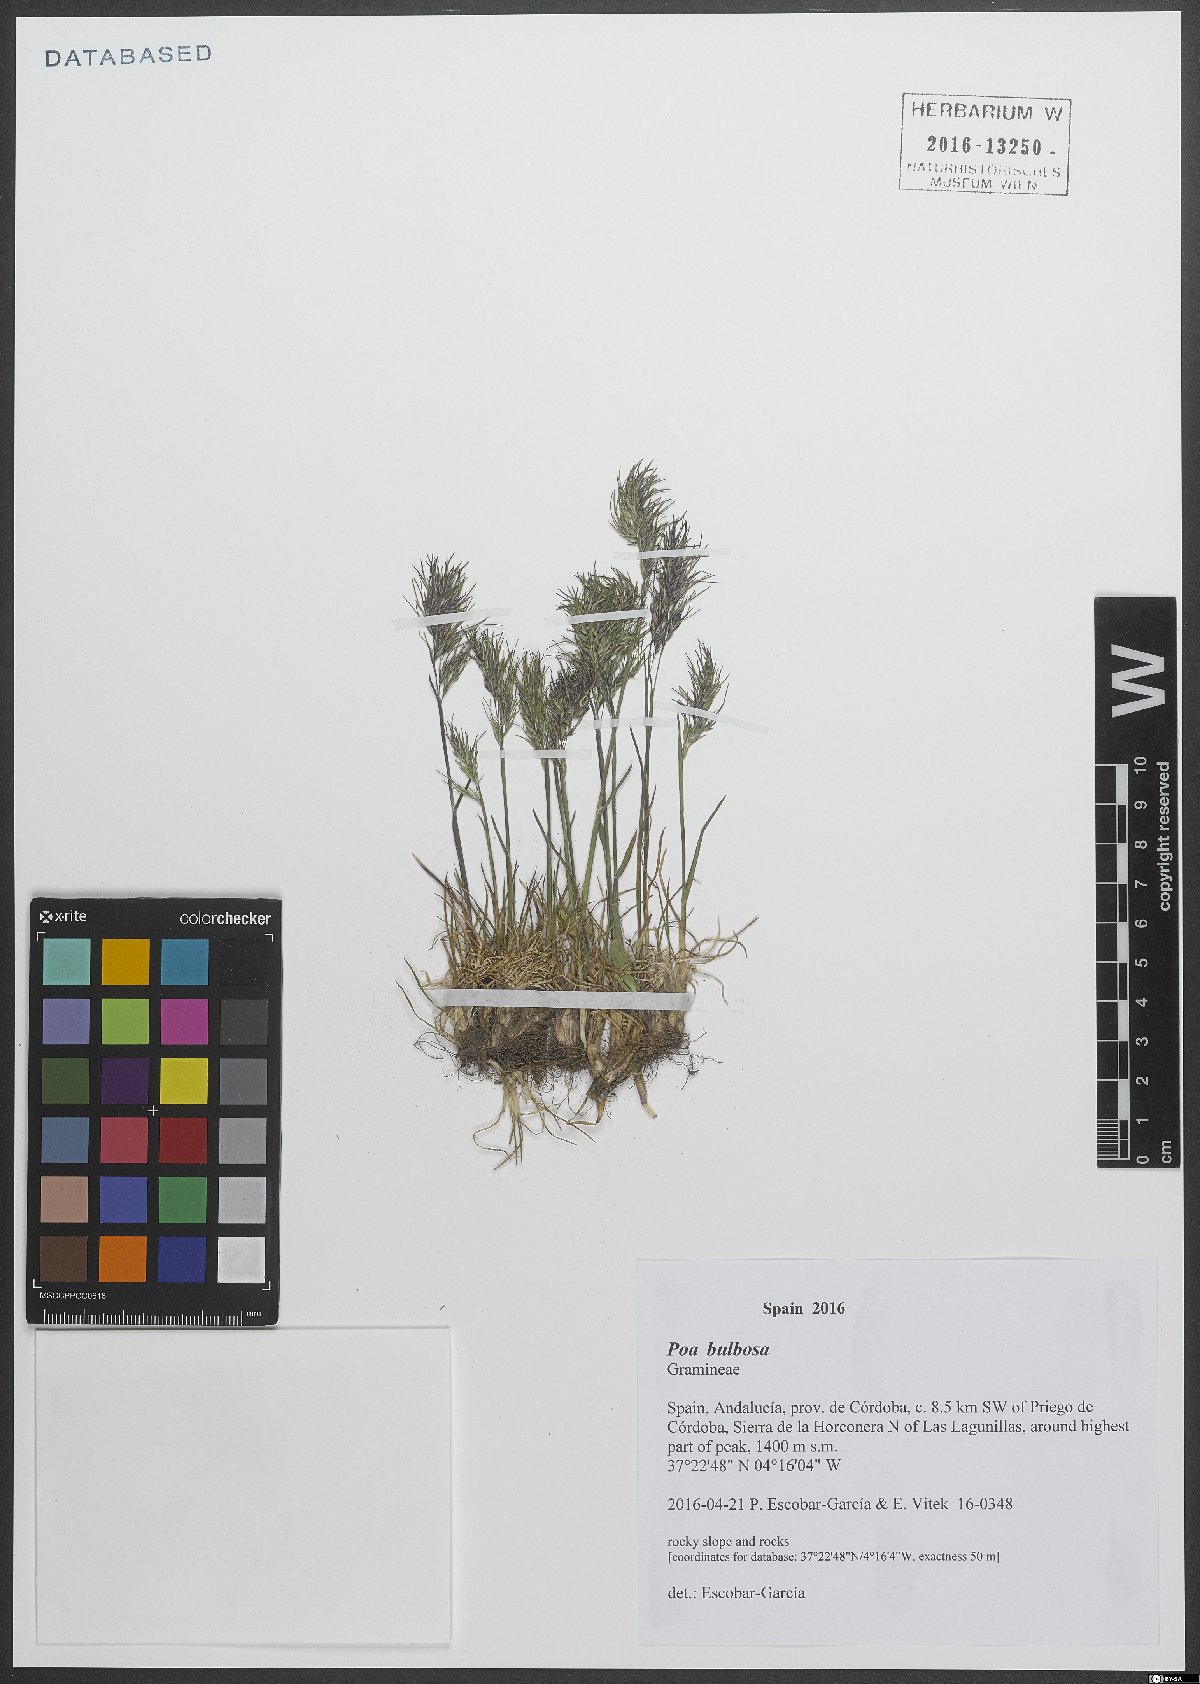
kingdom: Plantae
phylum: Tracheophyta
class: Liliopsida
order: Poales
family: Poaceae
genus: Poa
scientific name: Poa bulbosa
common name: Bulbous bluegrass
